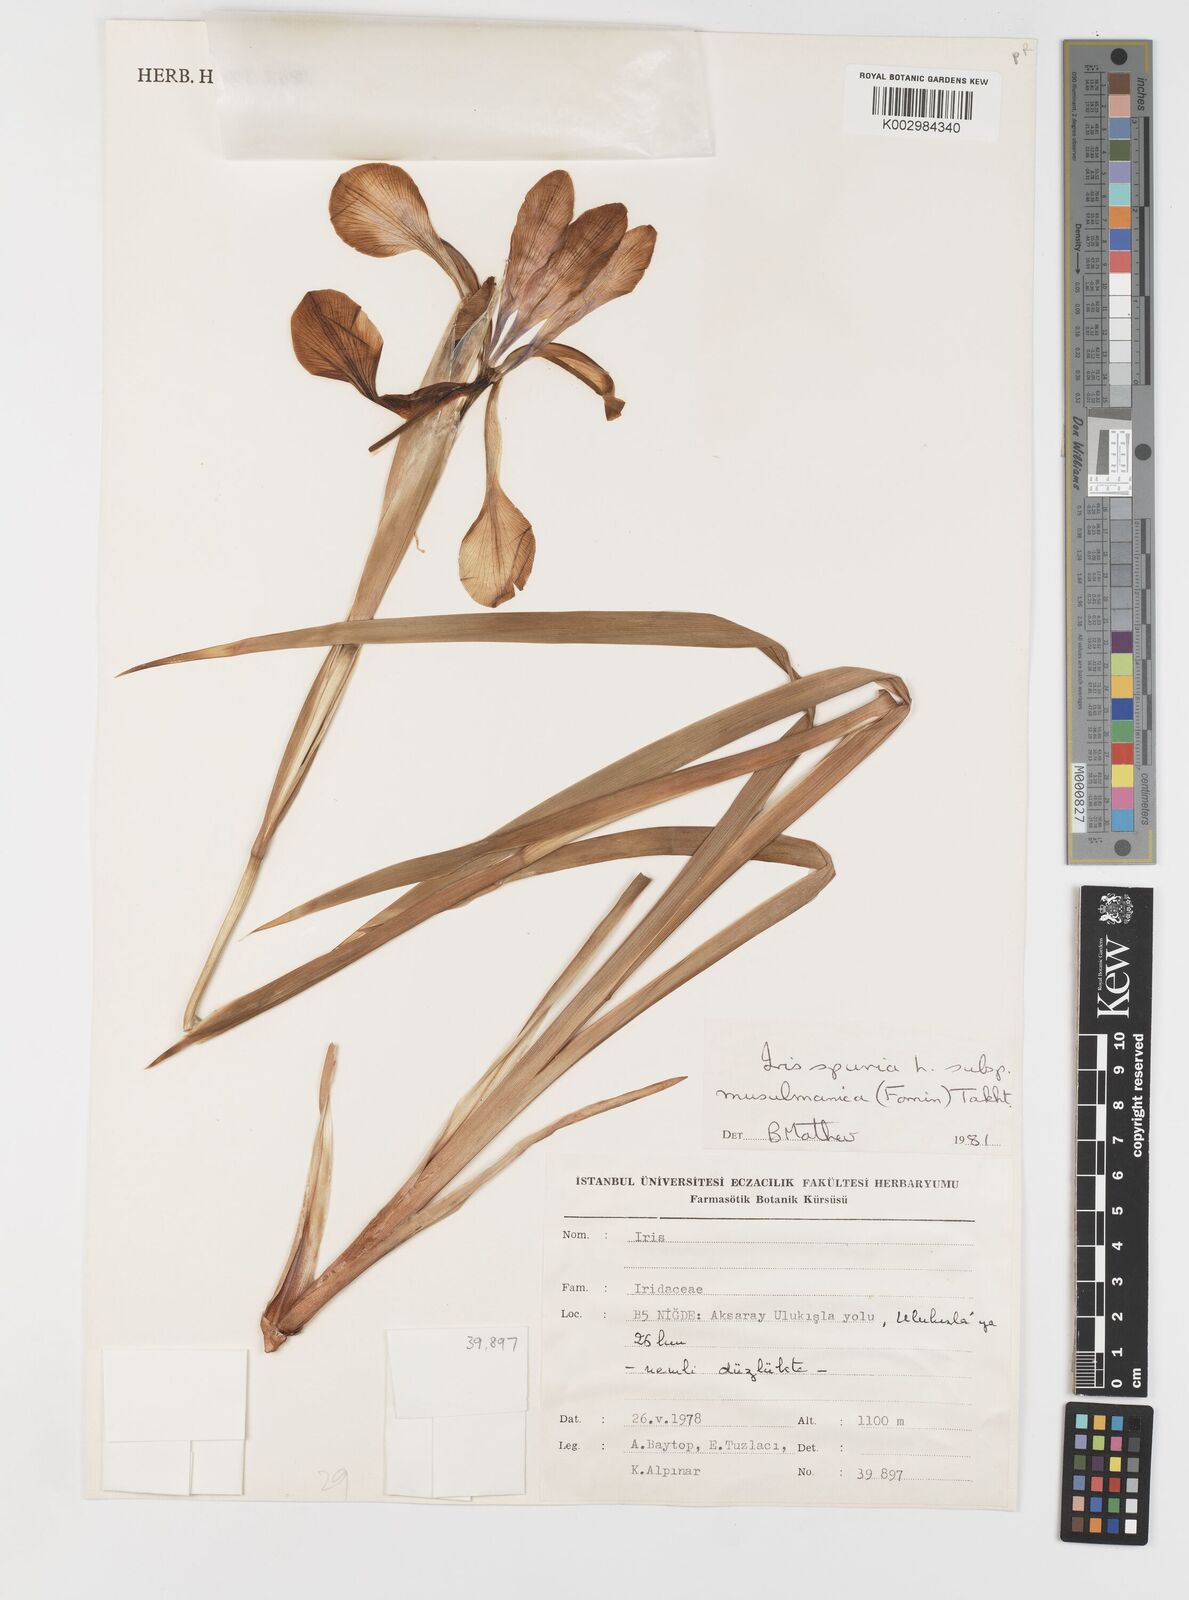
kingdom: Plantae
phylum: Tracheophyta
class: Liliopsida
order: Asparagales
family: Iridaceae
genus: Iris
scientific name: Iris spuria
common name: Blue iris
